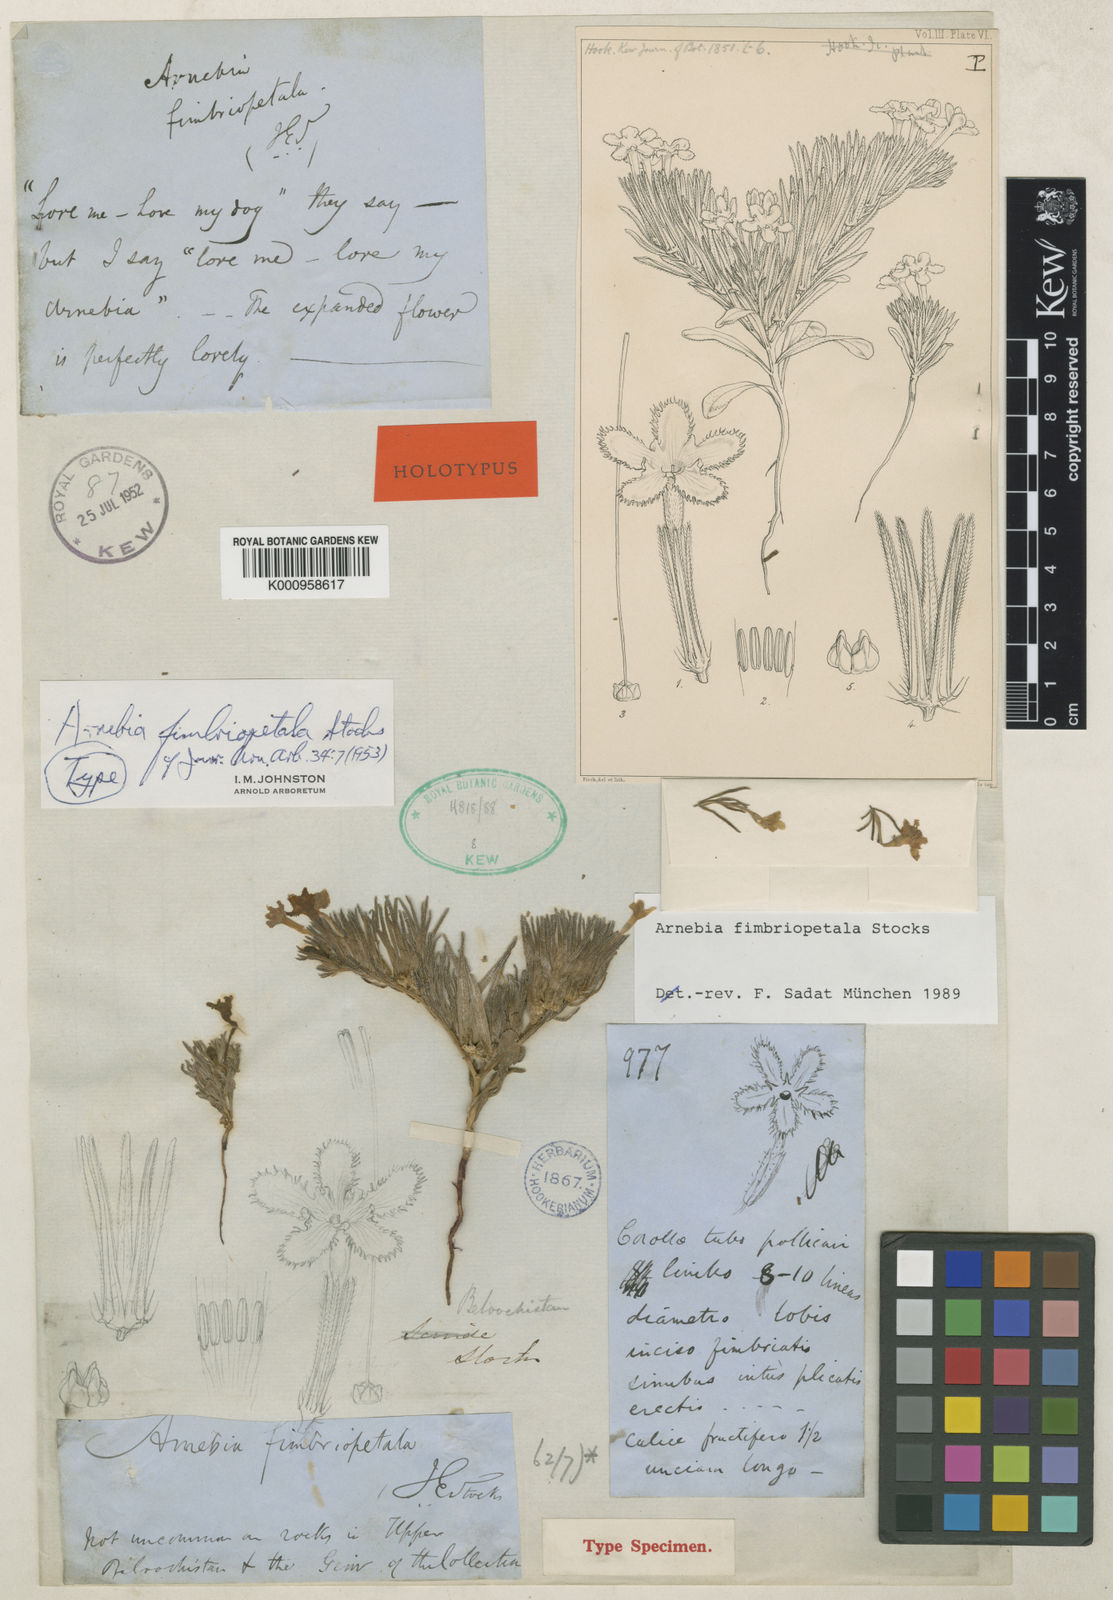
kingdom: Plantae
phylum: Tracheophyta
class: Magnoliopsida
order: Boraginales
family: Boraginaceae
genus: Arnebia
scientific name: Arnebia fimbriopetala
